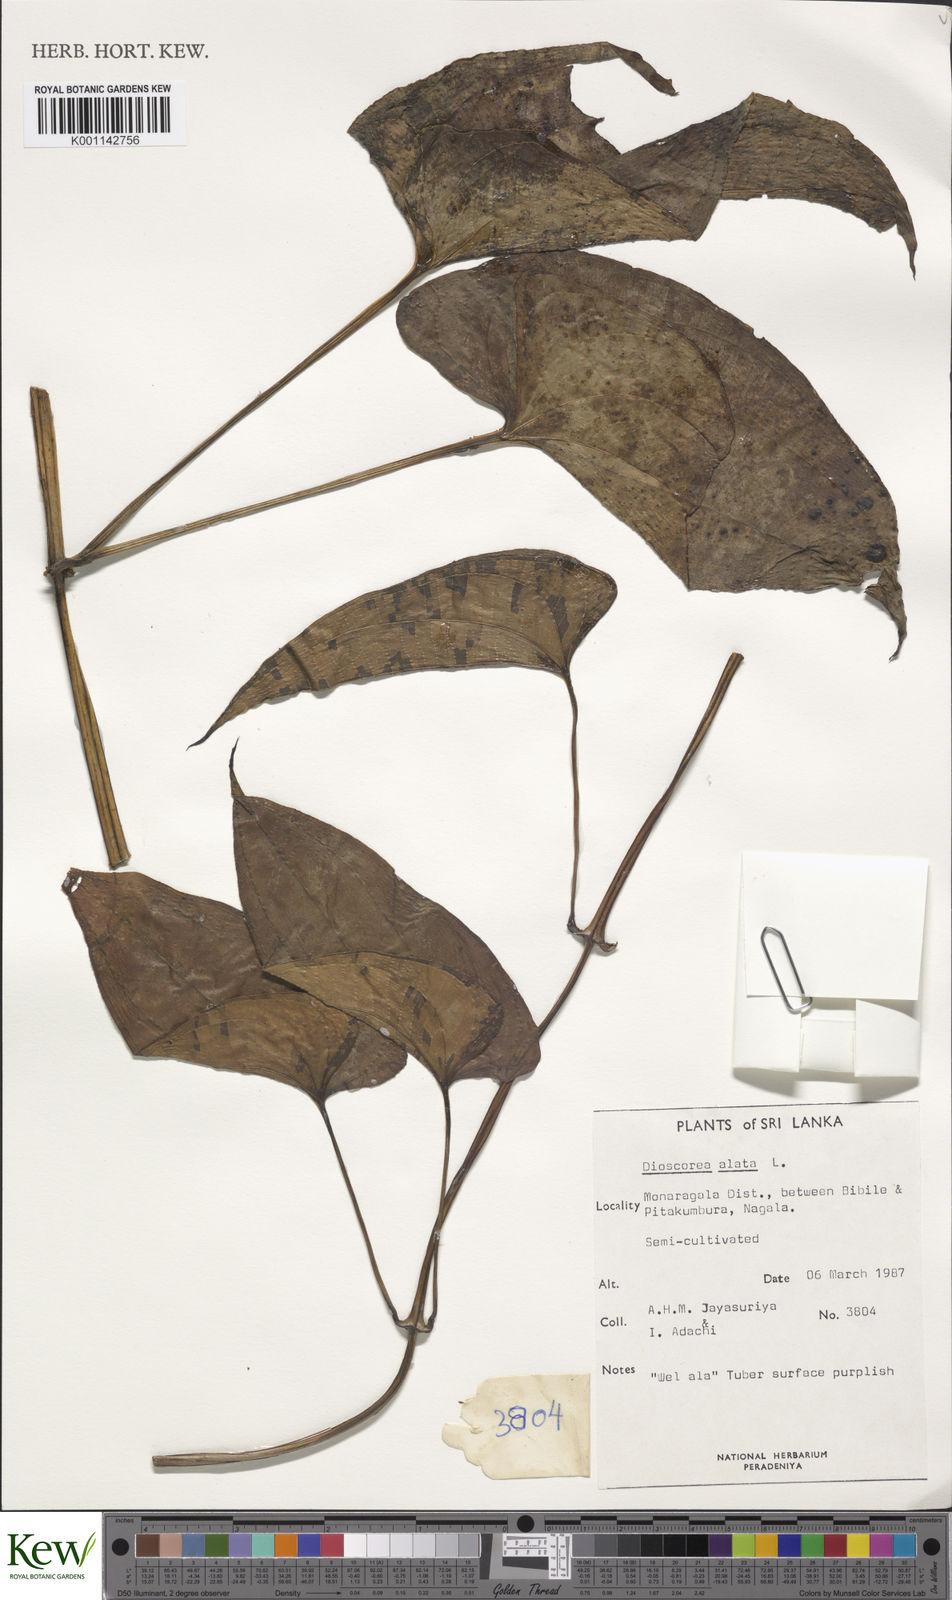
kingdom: Plantae
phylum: Tracheophyta
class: Liliopsida
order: Dioscoreales
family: Dioscoreaceae
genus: Dioscorea
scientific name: Dioscorea alata
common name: Water yam
